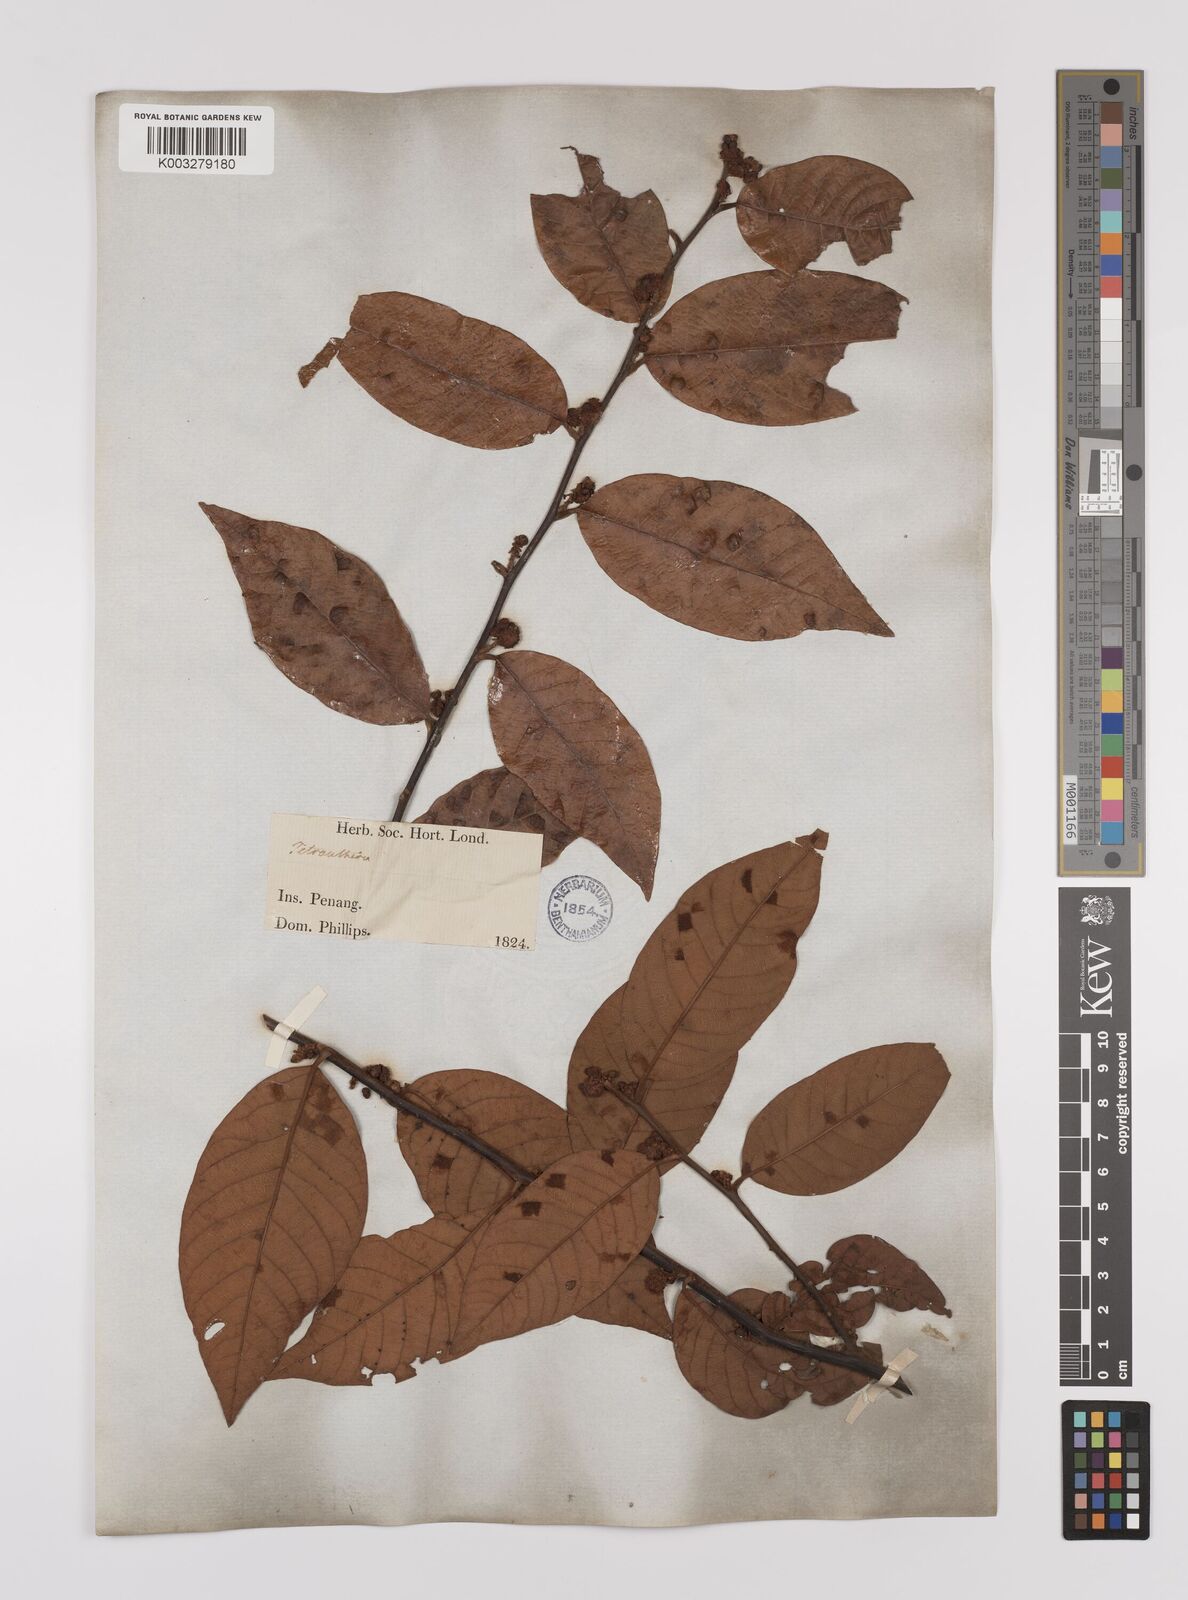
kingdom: Plantae
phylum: Tracheophyta
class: Magnoliopsida
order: Laurales
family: Lauraceae
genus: Litsea
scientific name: Litsea umbellata
